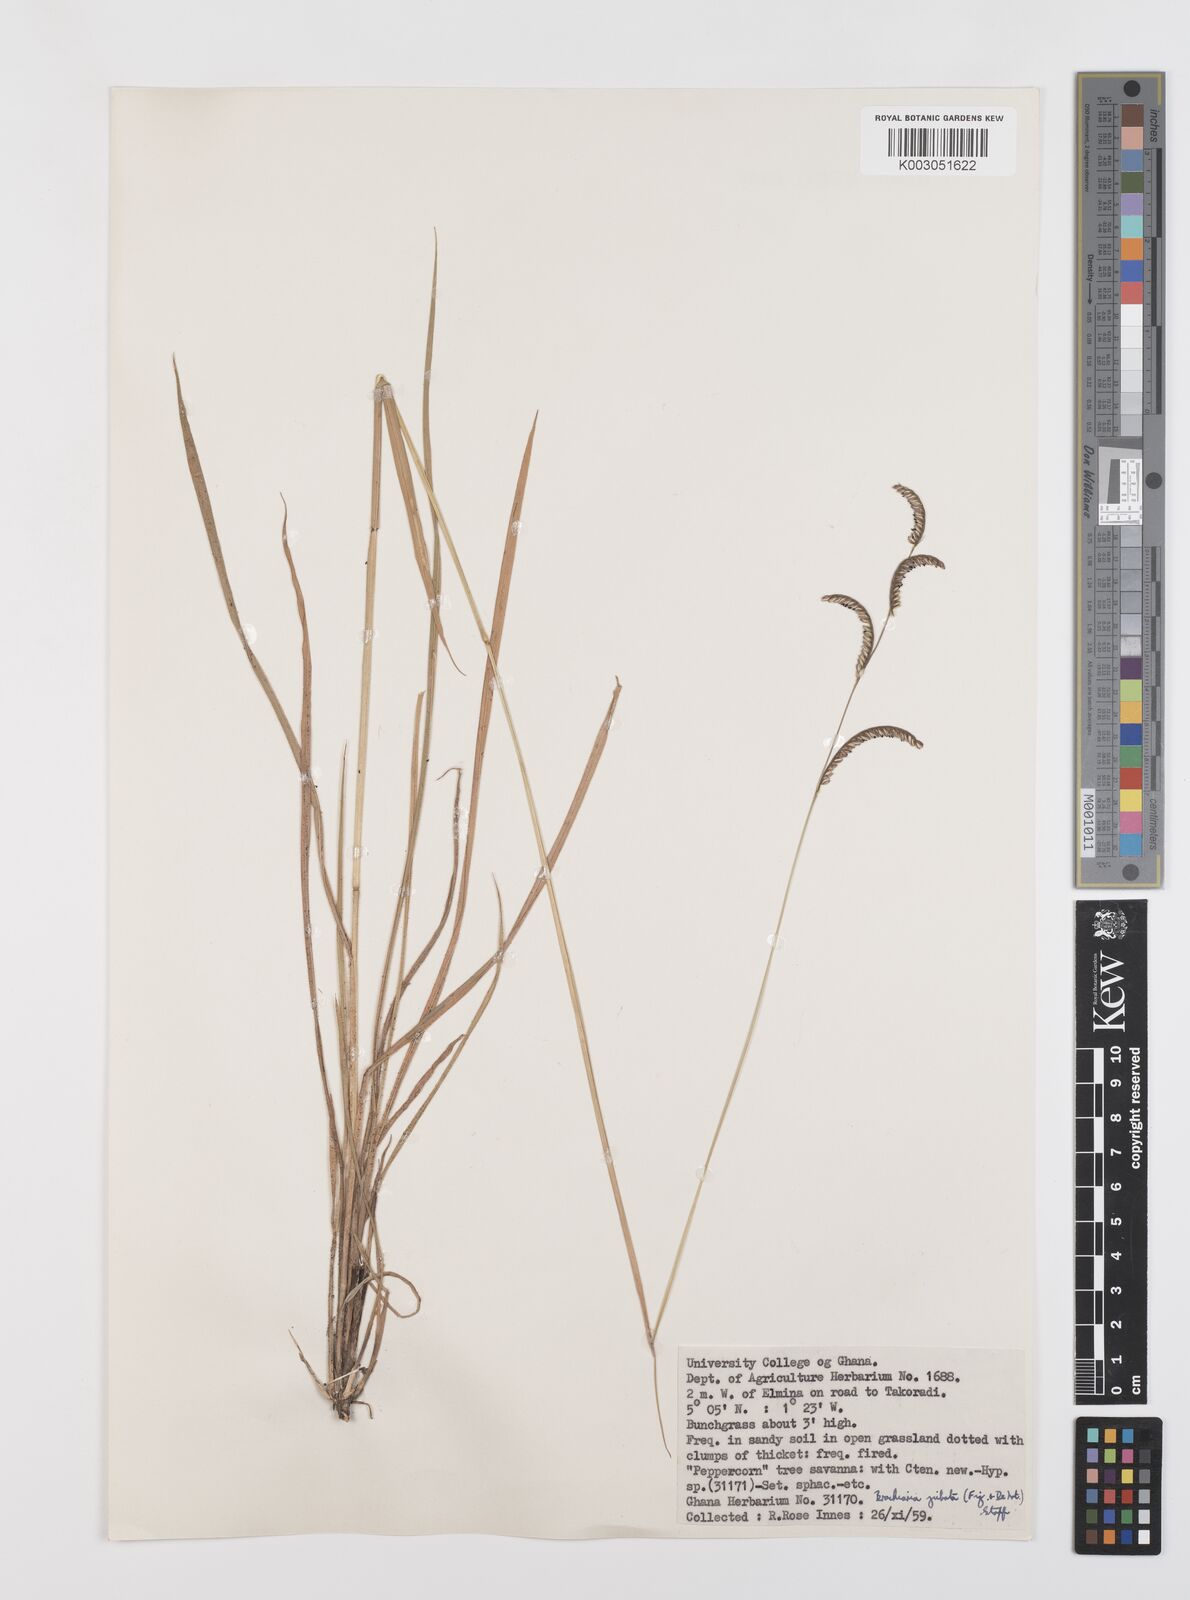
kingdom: Plantae
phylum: Tracheophyta
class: Liliopsida
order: Poales
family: Poaceae
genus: Urochloa
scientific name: Urochloa jubata
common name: Buffalograss
